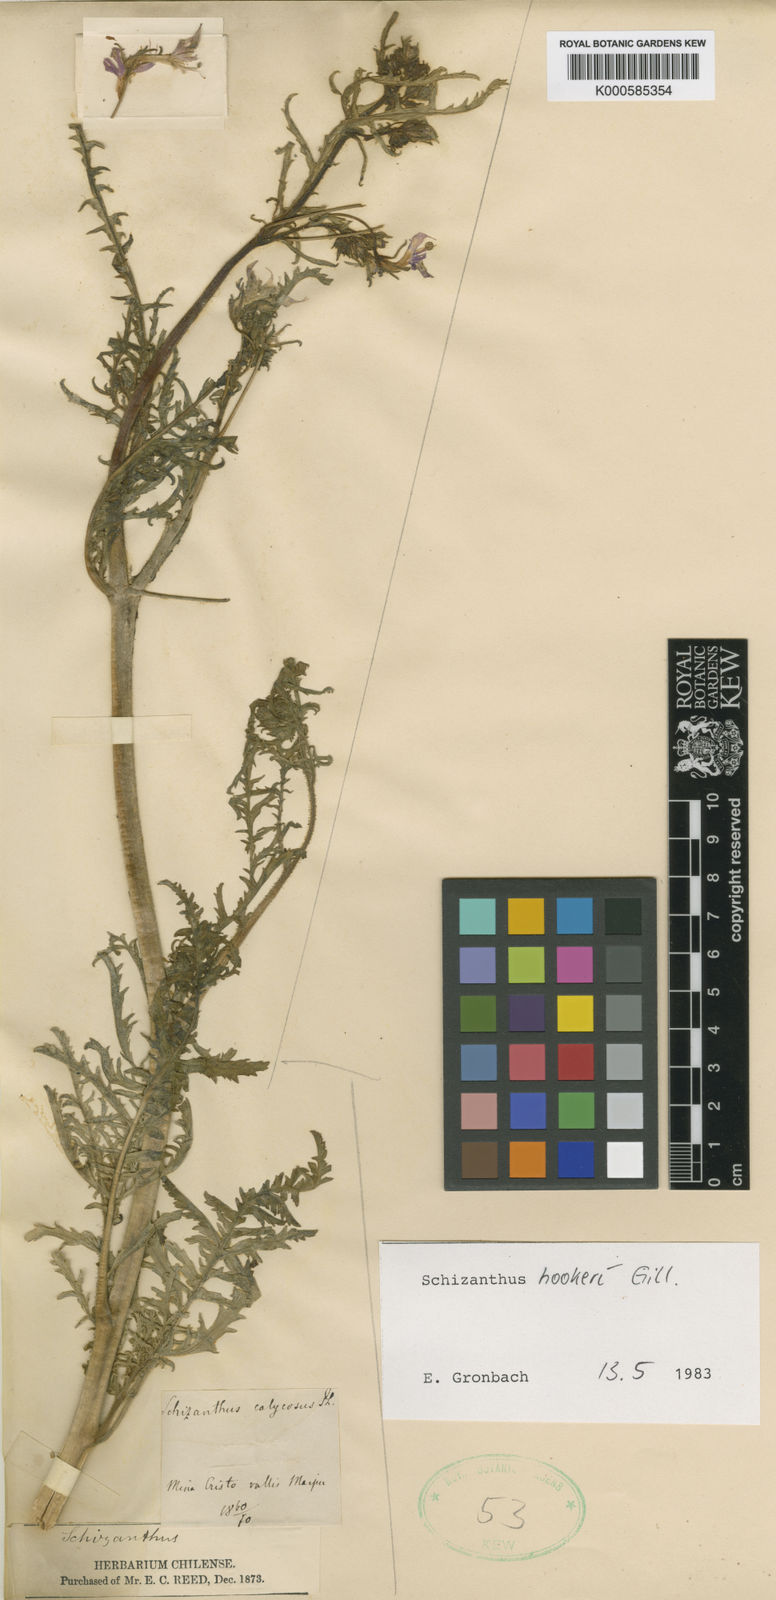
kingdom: Plantae
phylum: Tracheophyta
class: Magnoliopsida
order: Solanales
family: Solanaceae
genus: Schizanthus
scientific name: Schizanthus hookeri
